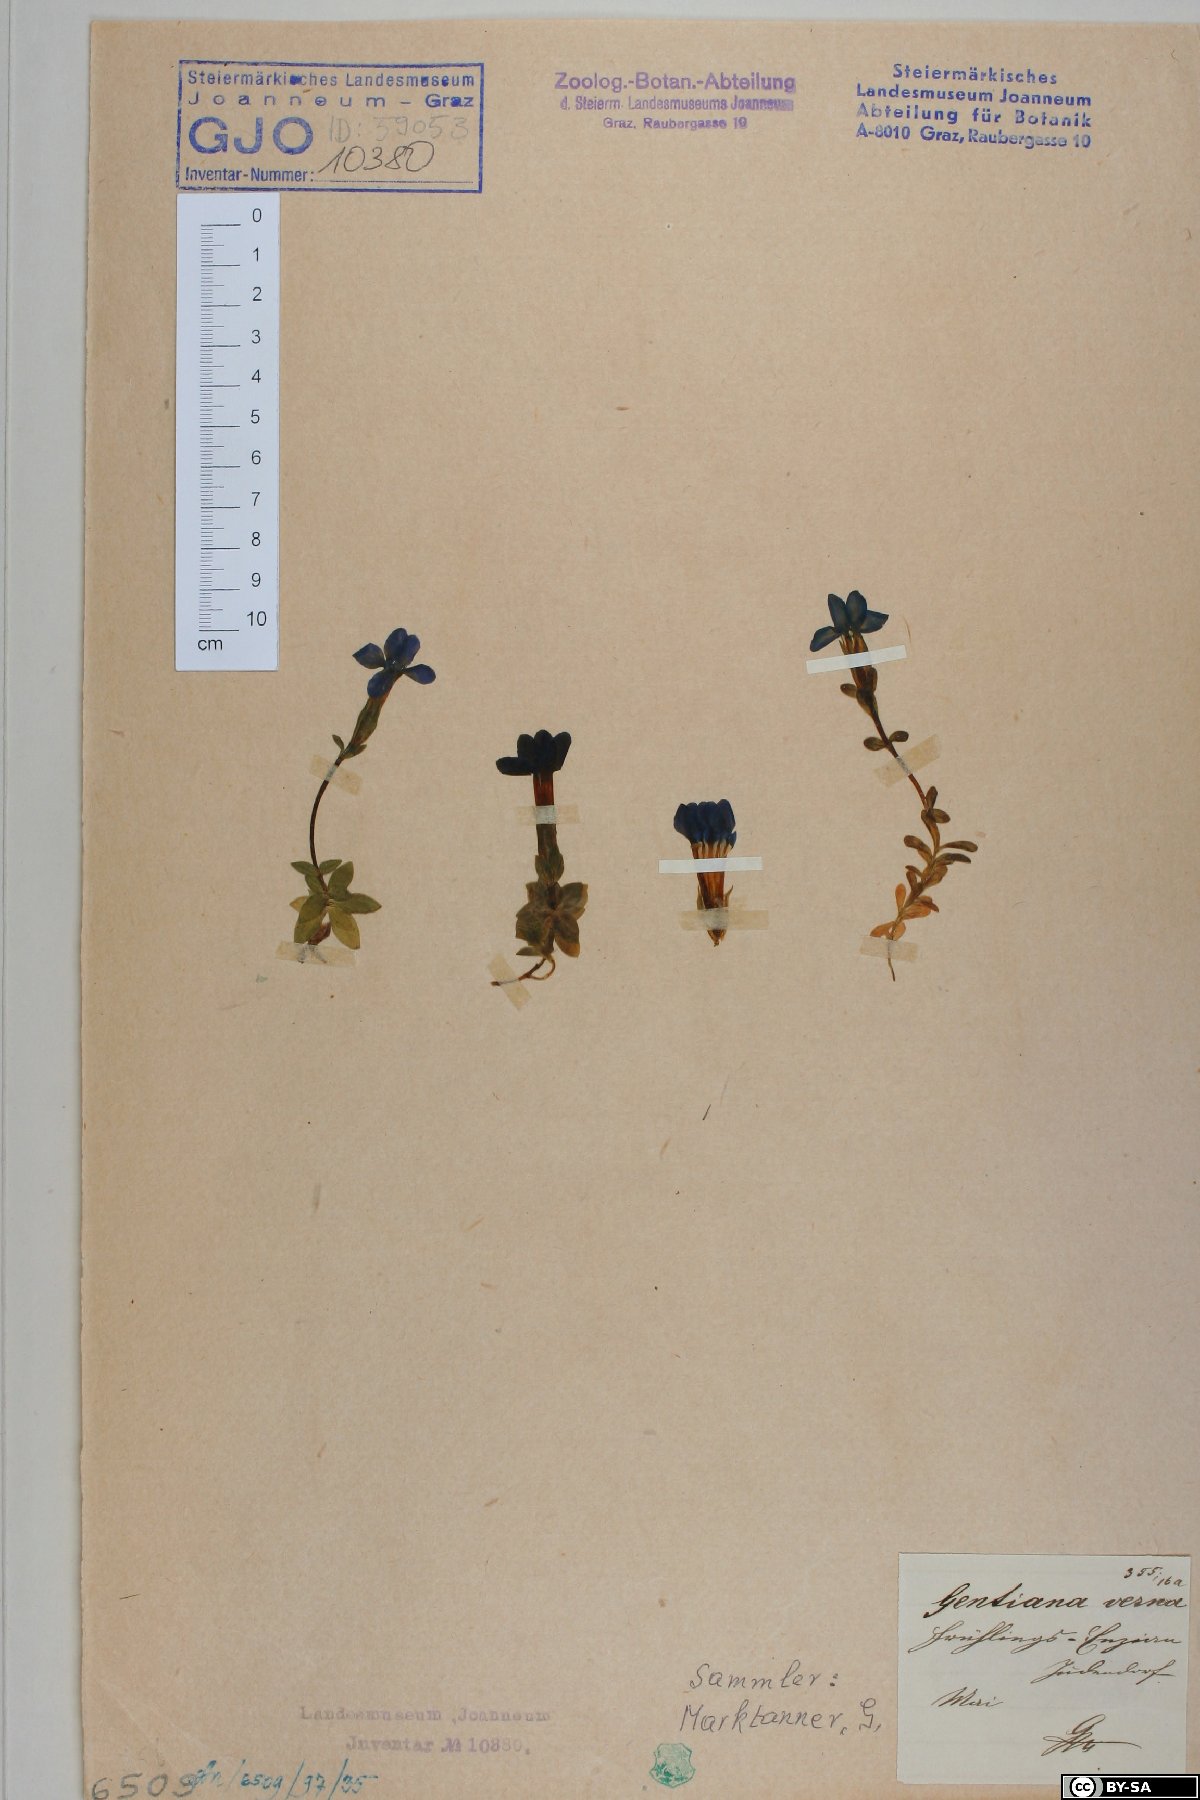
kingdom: Plantae
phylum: Tracheophyta
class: Magnoliopsida
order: Gentianales
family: Gentianaceae
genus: Gentiana
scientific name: Gentiana verna
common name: Spring gentian
